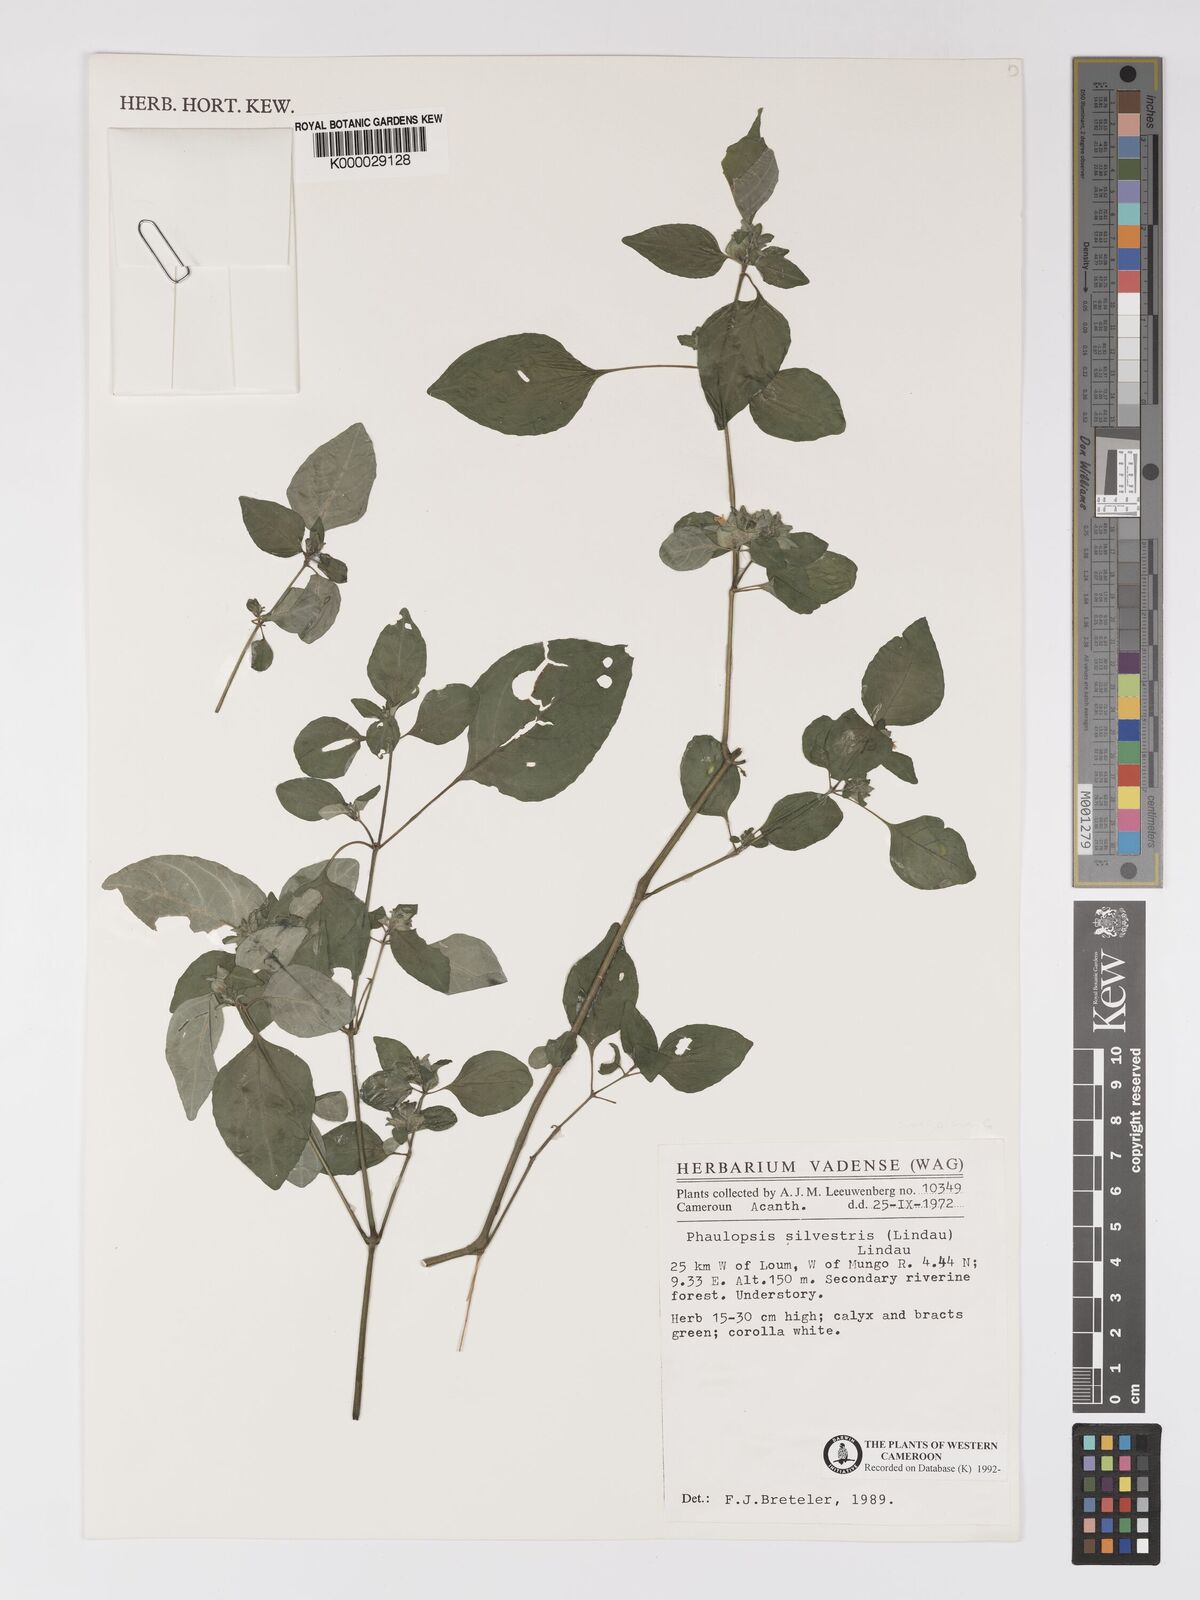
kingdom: Plantae
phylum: Tracheophyta
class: Magnoliopsida
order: Lamiales
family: Acanthaceae
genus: Phaulopsis
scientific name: Phaulopsis angolana
